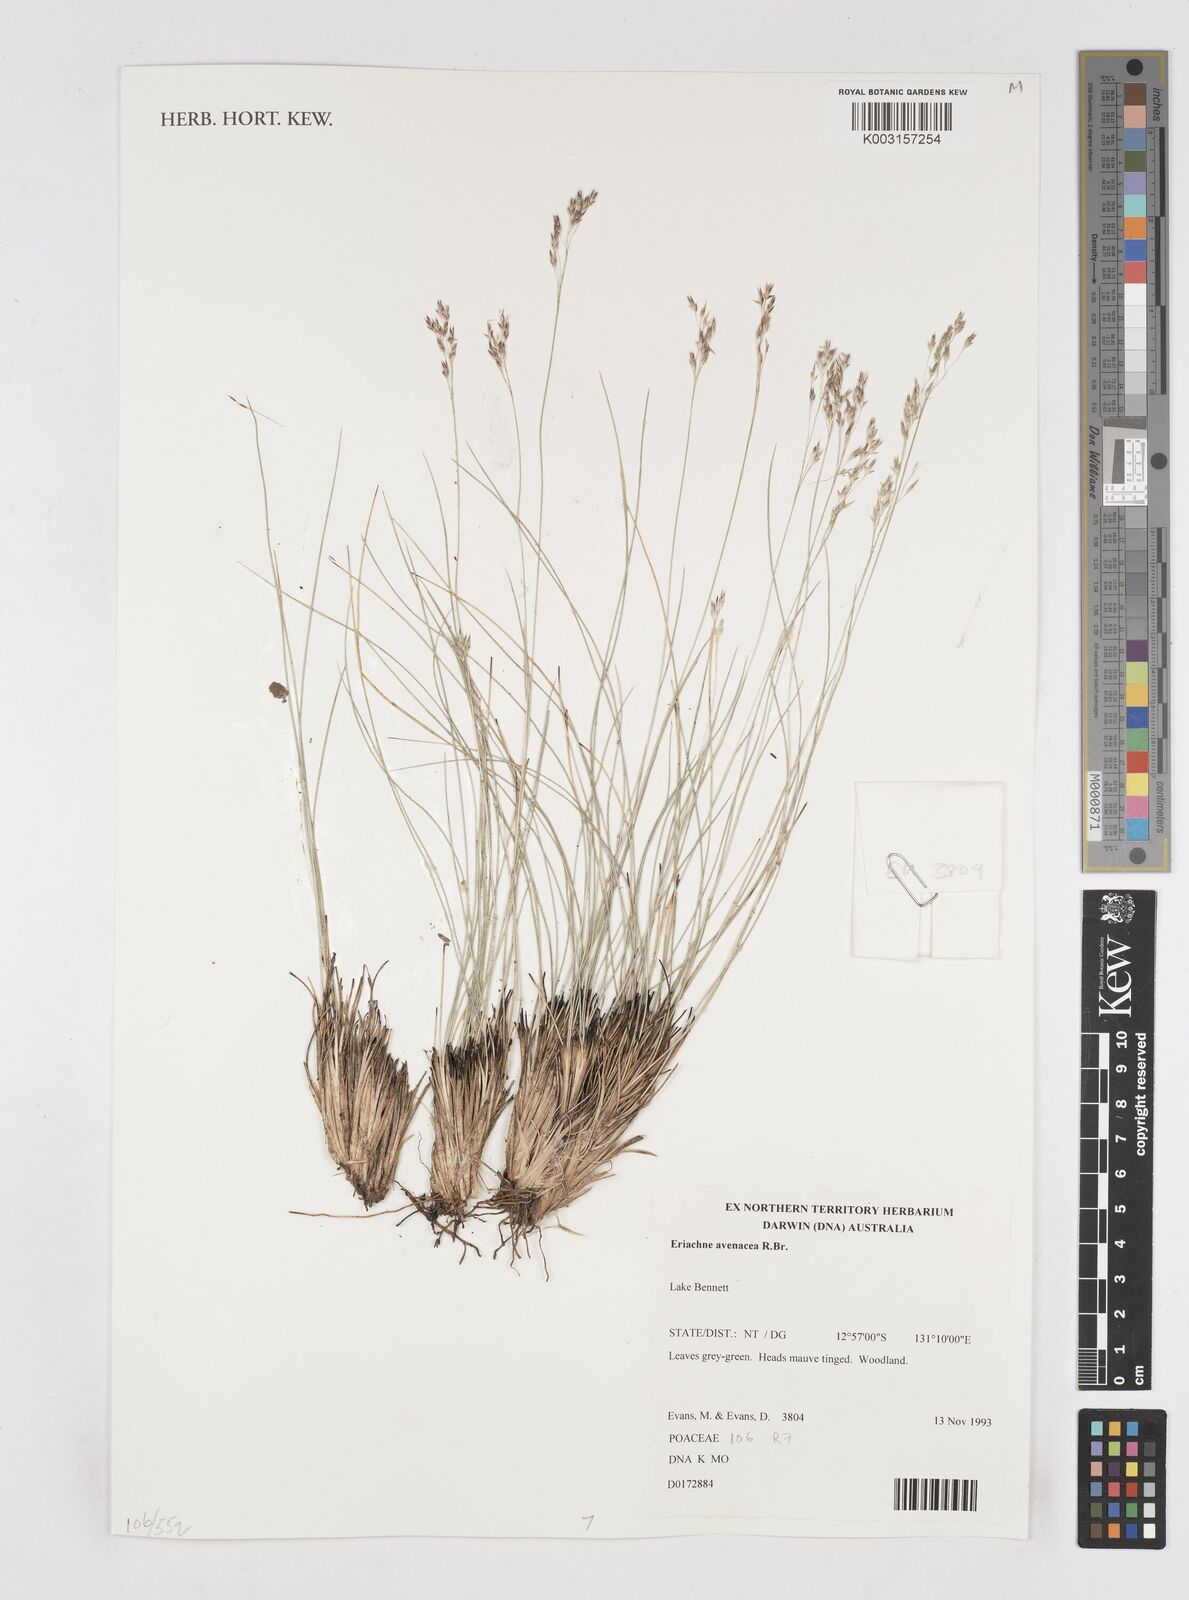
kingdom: Plantae
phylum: Tracheophyta
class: Liliopsida
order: Poales
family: Poaceae
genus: Eriachne
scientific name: Eriachne avenacea
